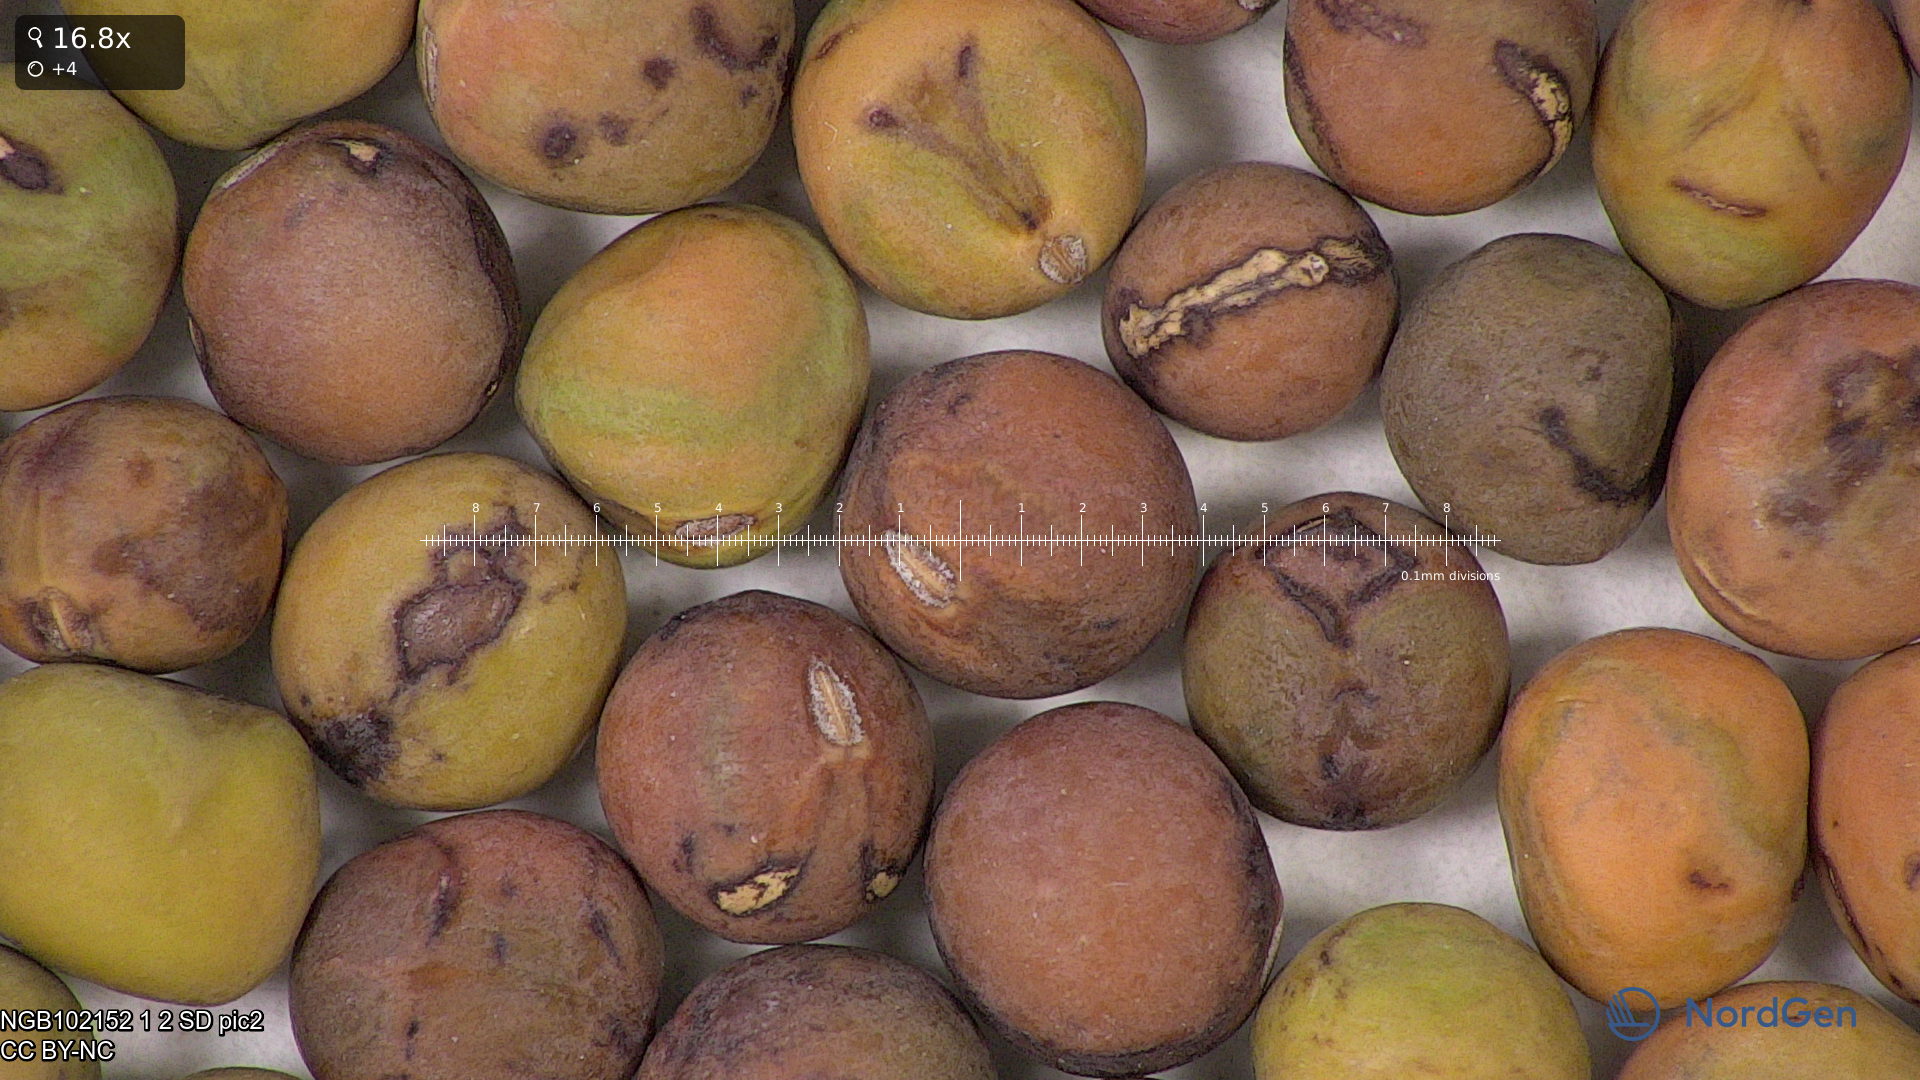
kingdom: Plantae
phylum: Tracheophyta
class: Magnoliopsida
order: Fabales
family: Fabaceae
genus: Lathyrus
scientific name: Lathyrus oleraceus
